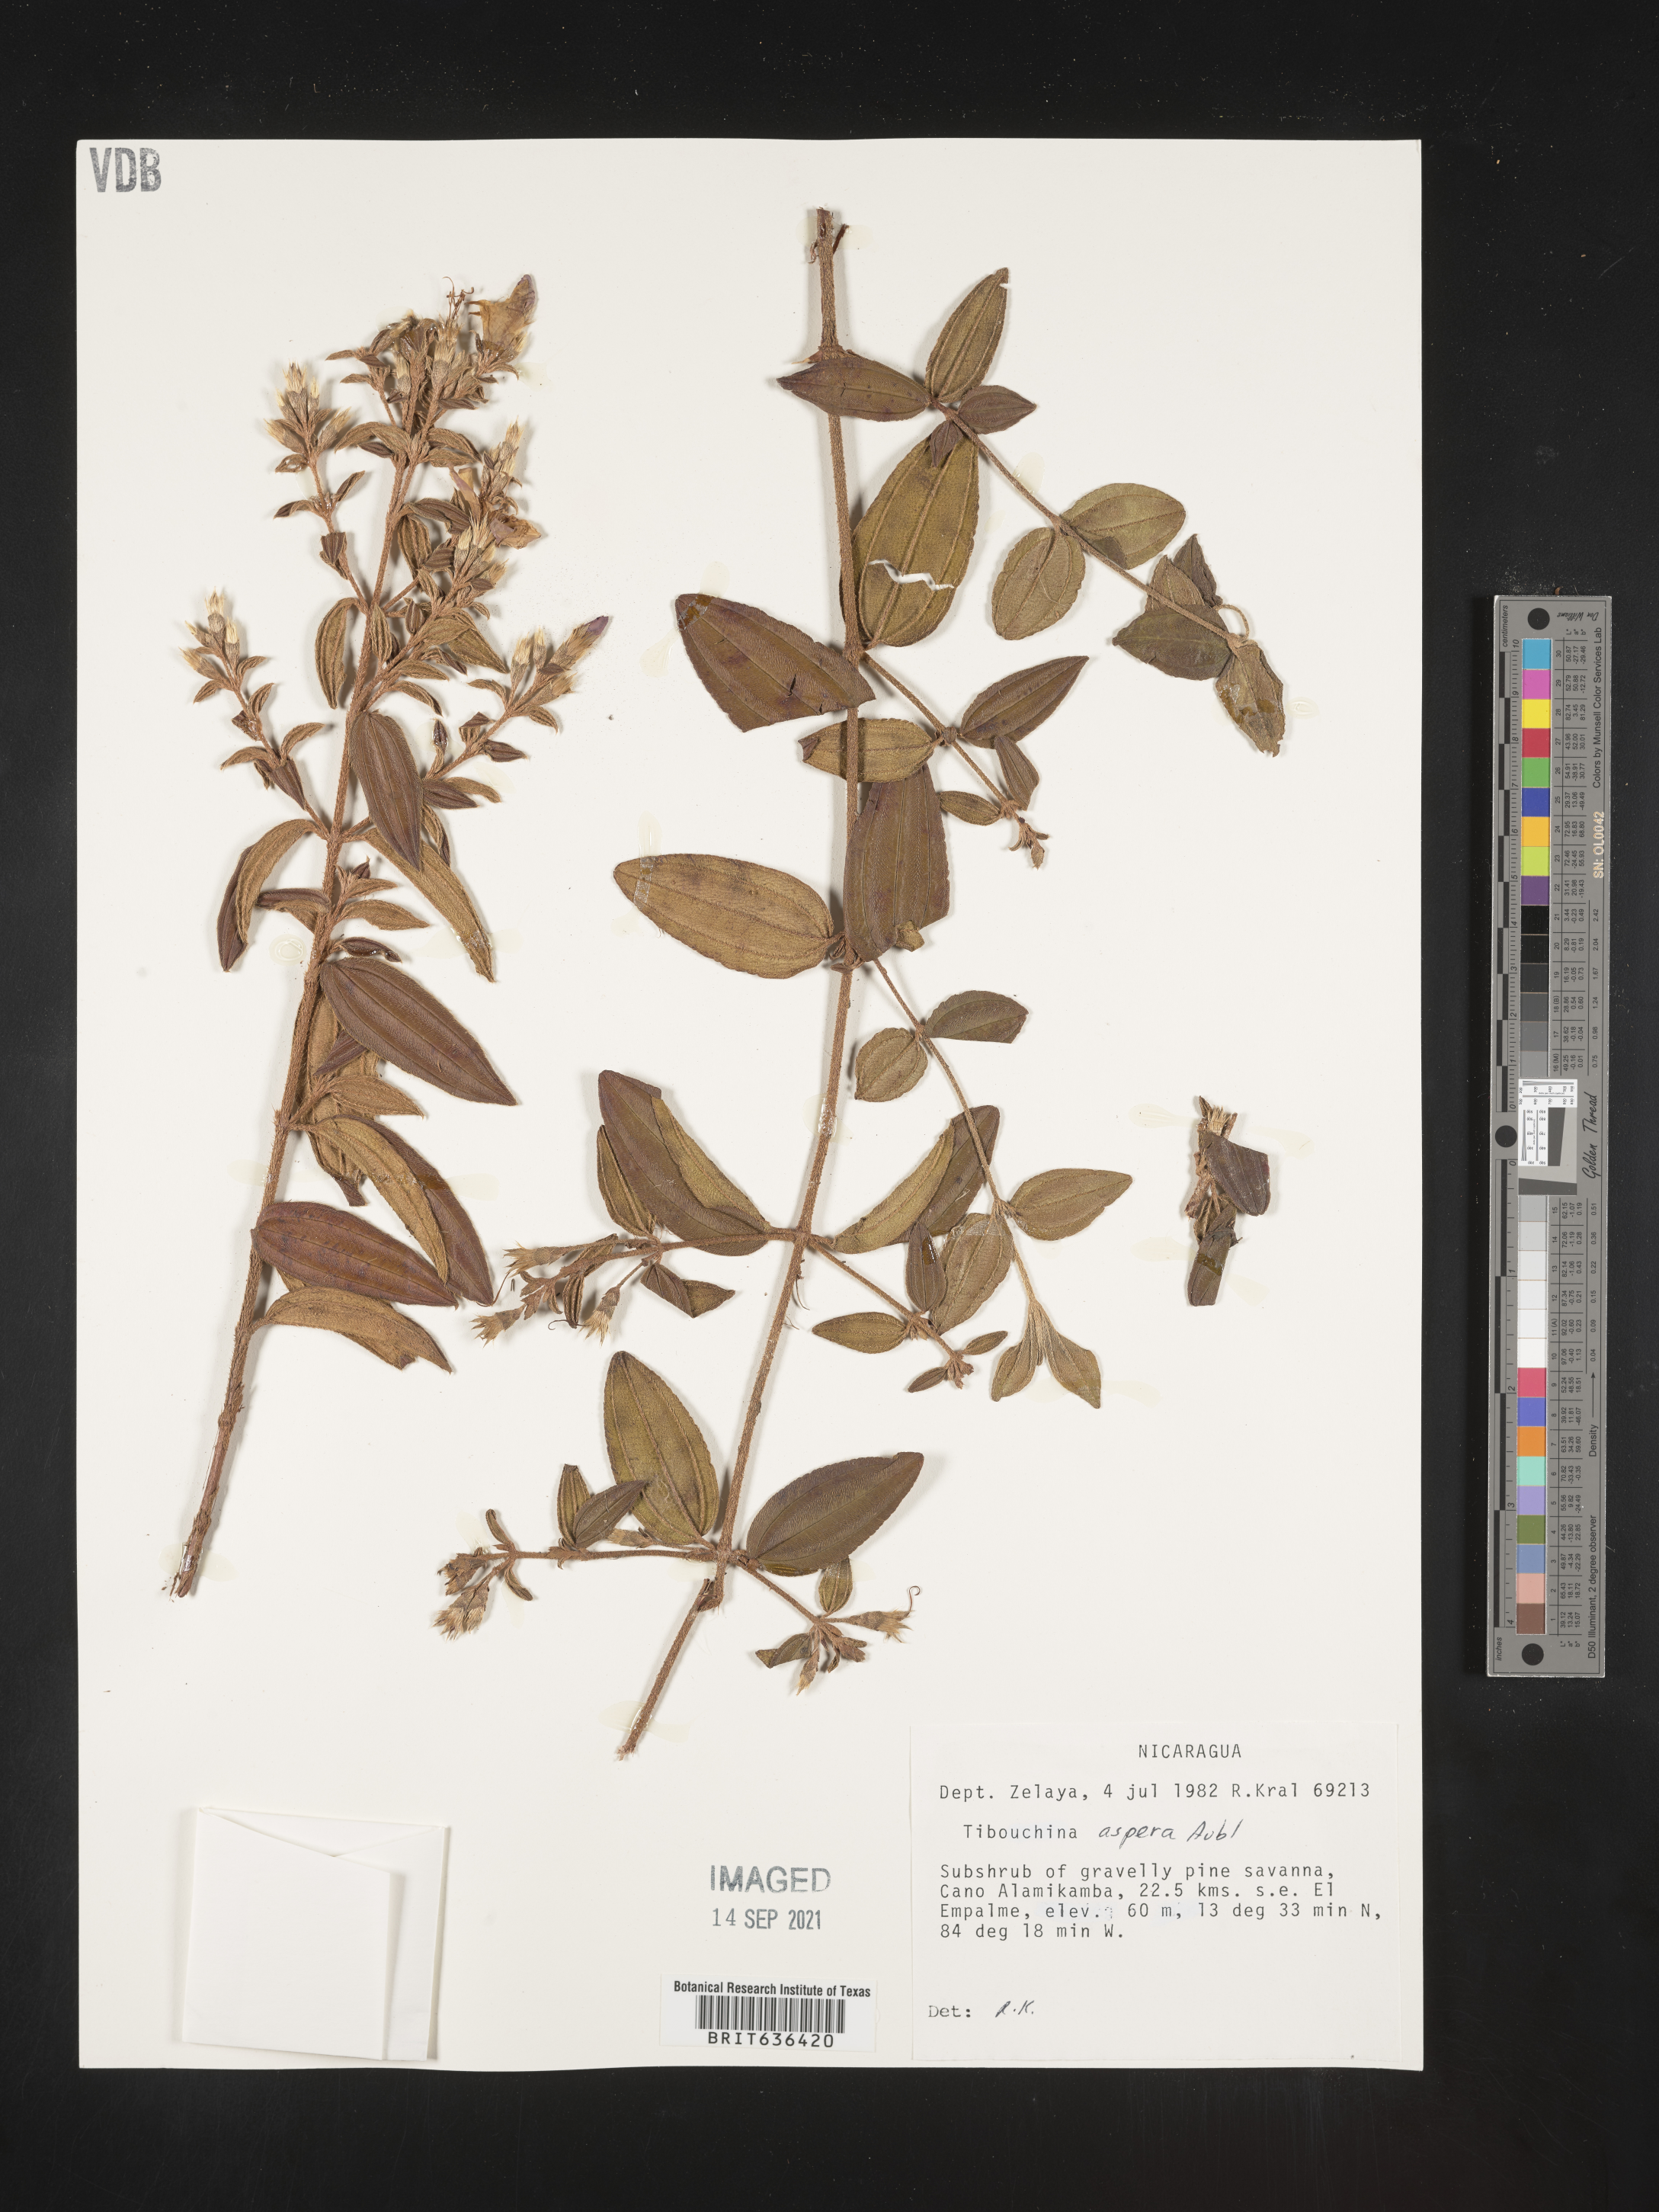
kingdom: Plantae
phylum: Tracheophyta
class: Magnoliopsida
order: Myrtales
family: Melastomataceae
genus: Tibouchina
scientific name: Tibouchina
